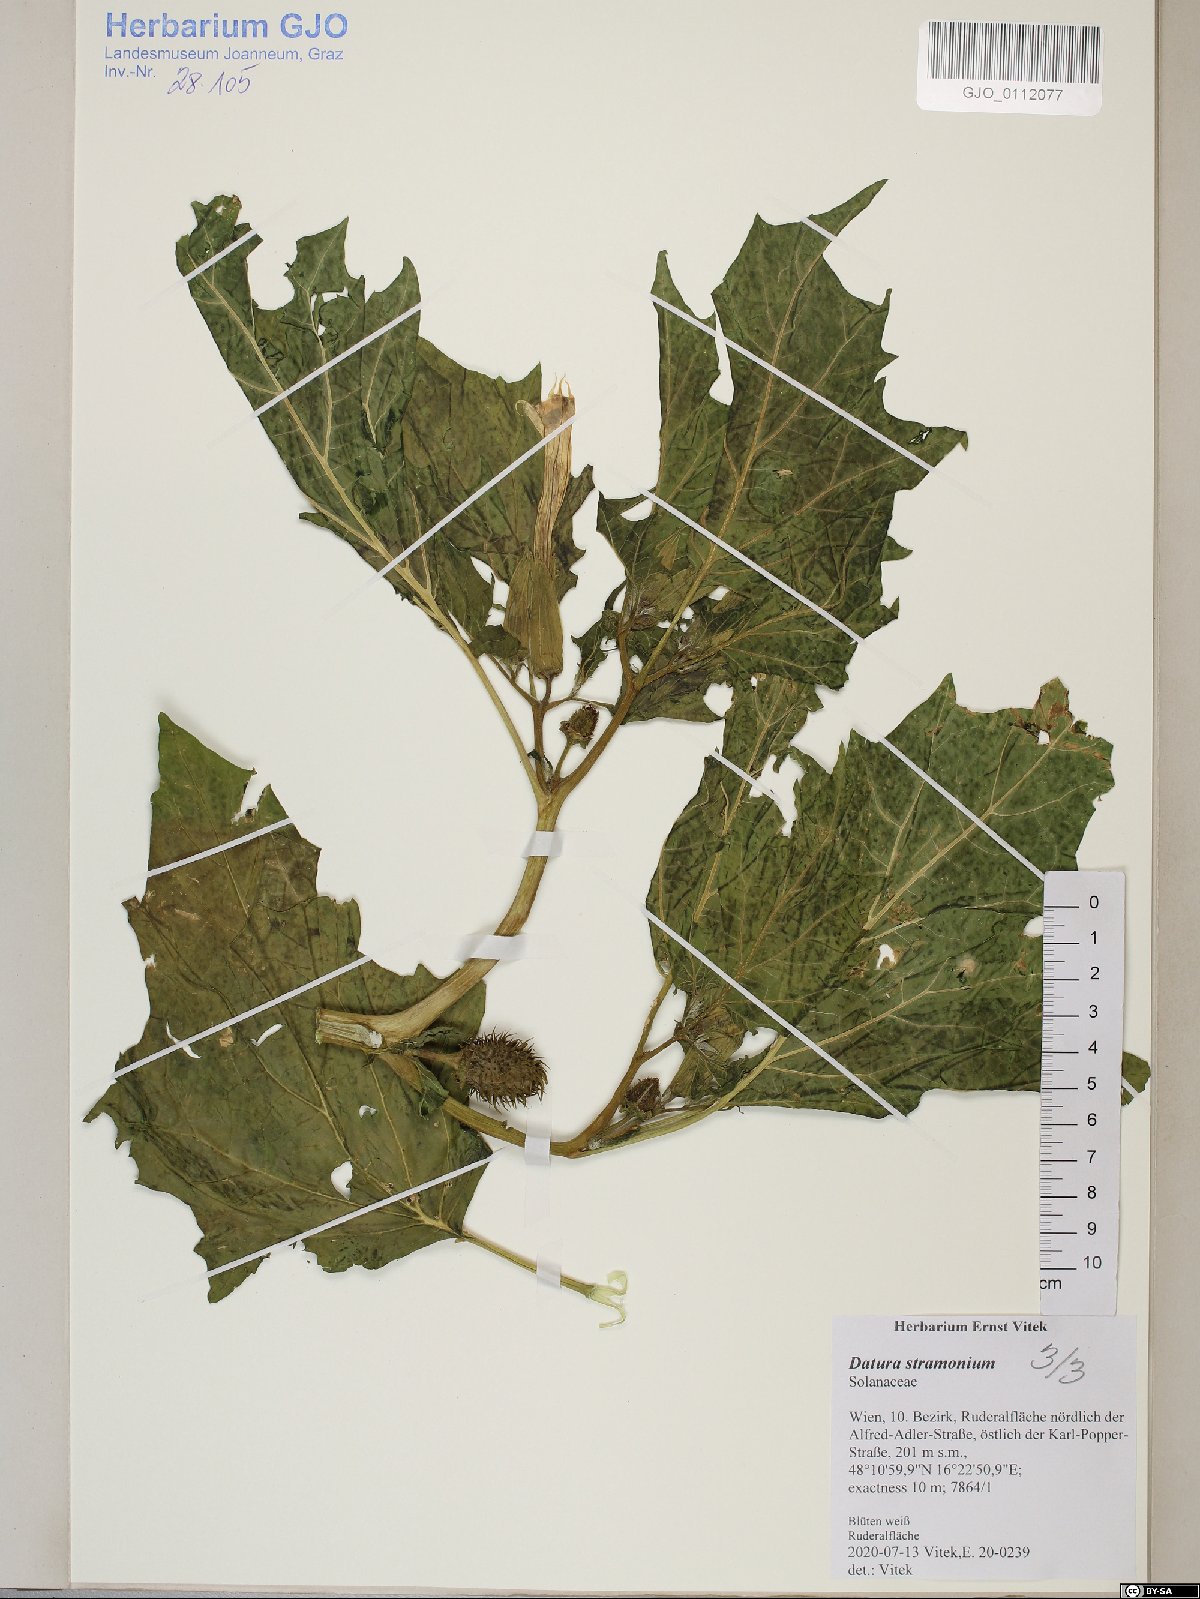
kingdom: Plantae
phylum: Tracheophyta
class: Magnoliopsida
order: Solanales
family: Solanaceae
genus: Datura
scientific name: Datura stramonium
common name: Thorn-apple
